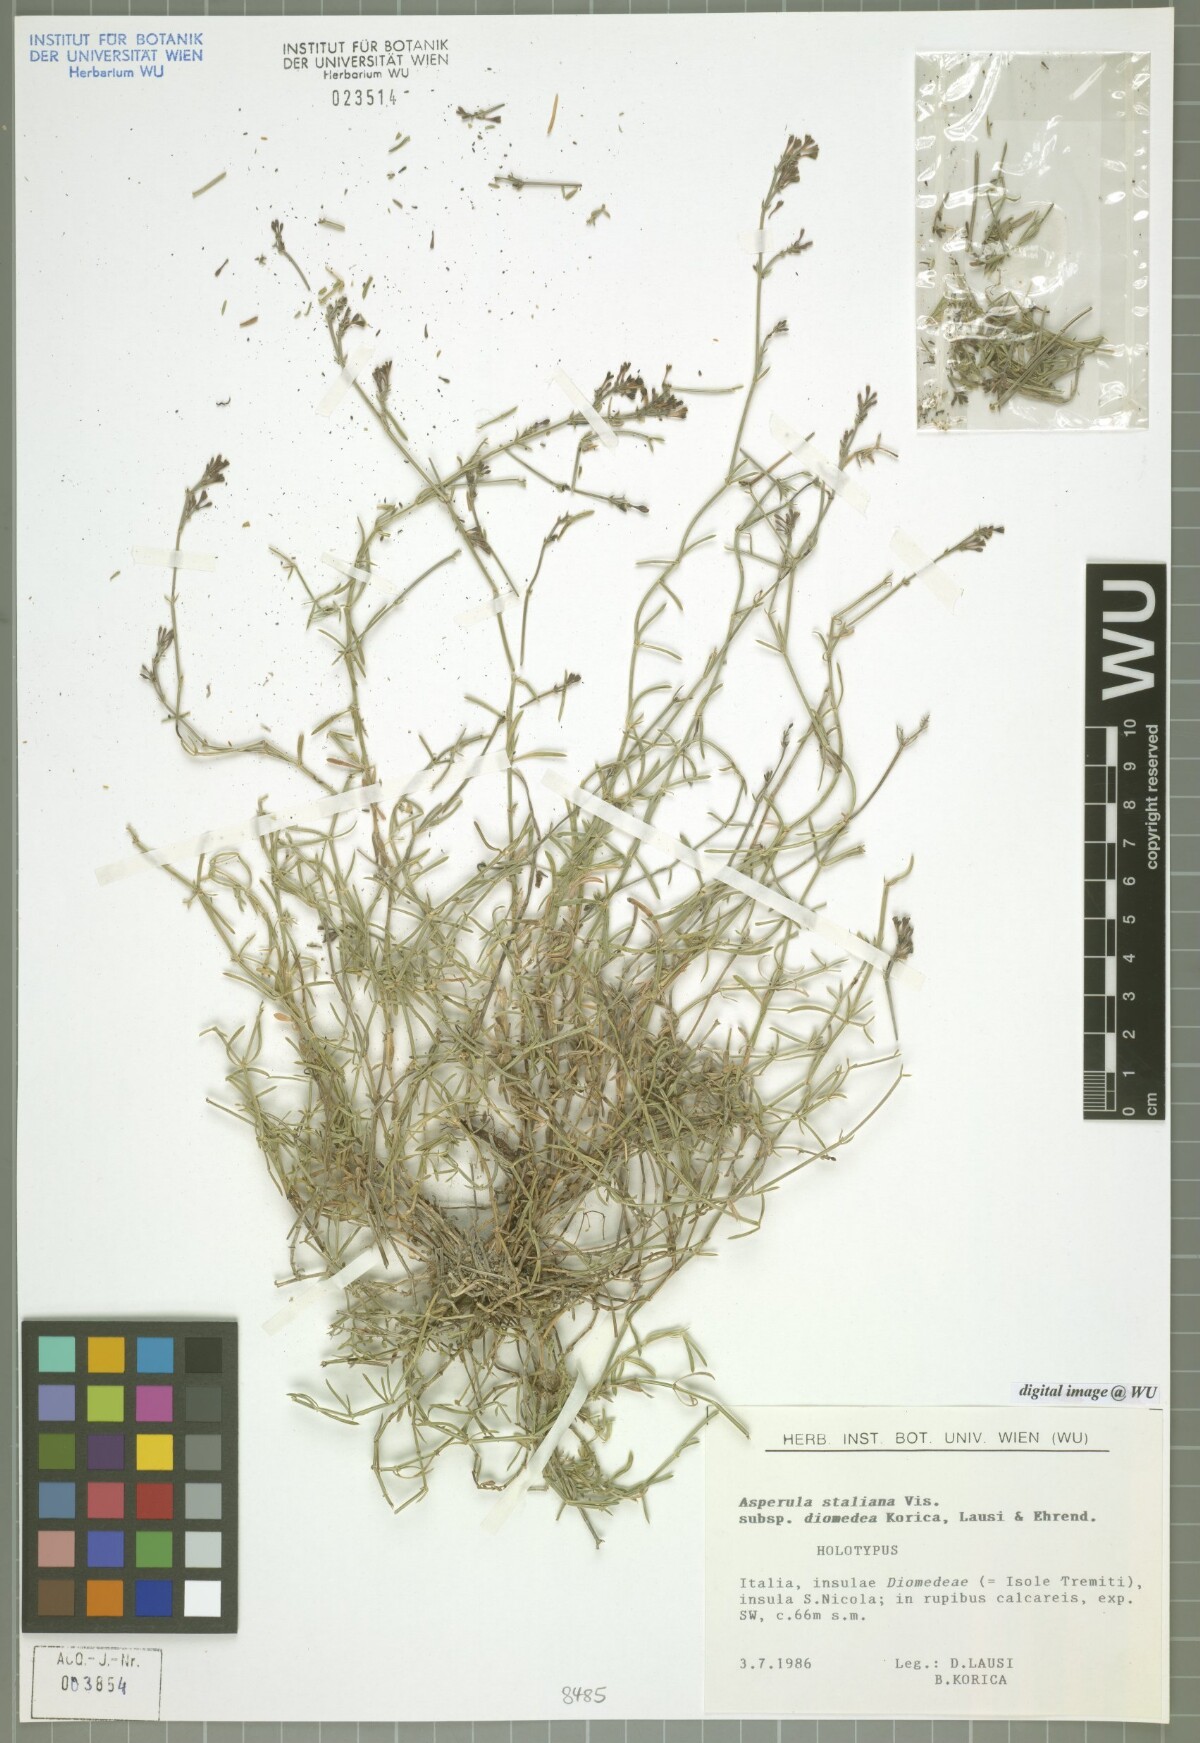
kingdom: Plantae
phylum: Tracheophyta
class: Magnoliopsida
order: Gentianales
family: Rubiaceae
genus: Cynanchica
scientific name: Cynanchica staliana
